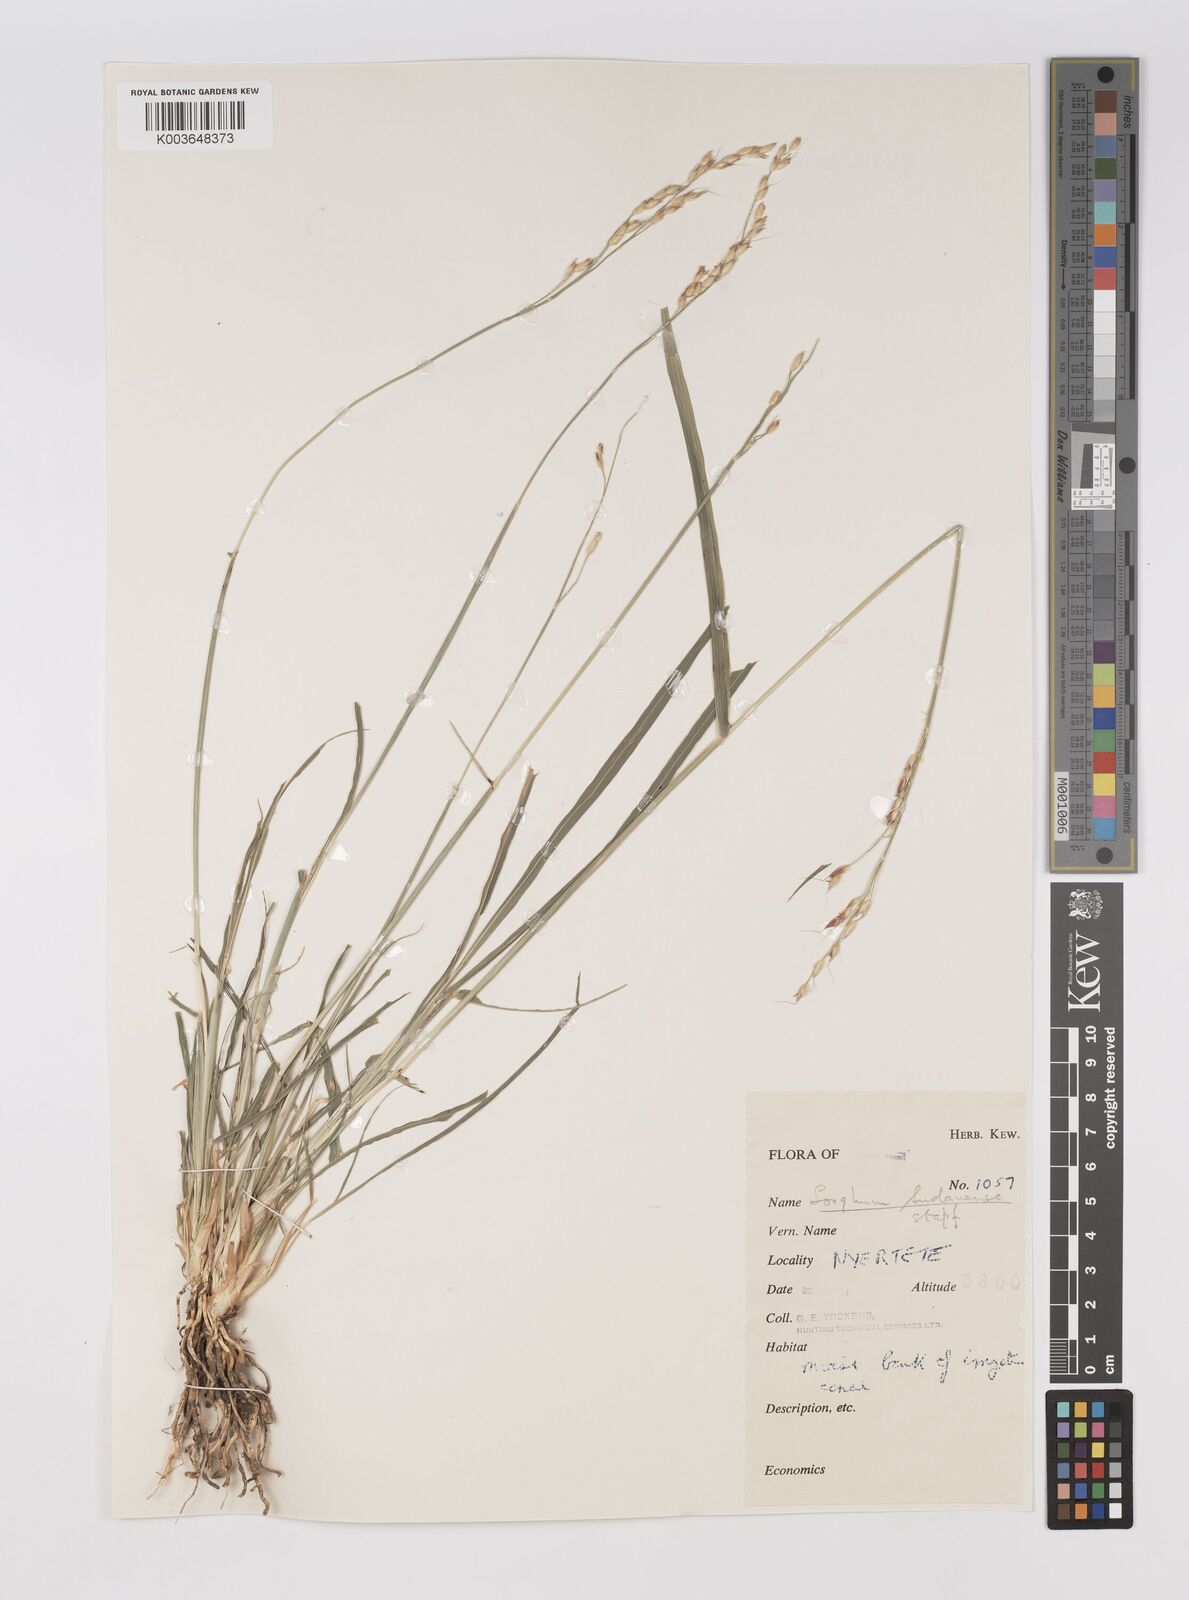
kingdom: Plantae
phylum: Tracheophyta
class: Liliopsida
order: Poales
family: Poaceae
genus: Sorghum
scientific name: Sorghum virgatum
